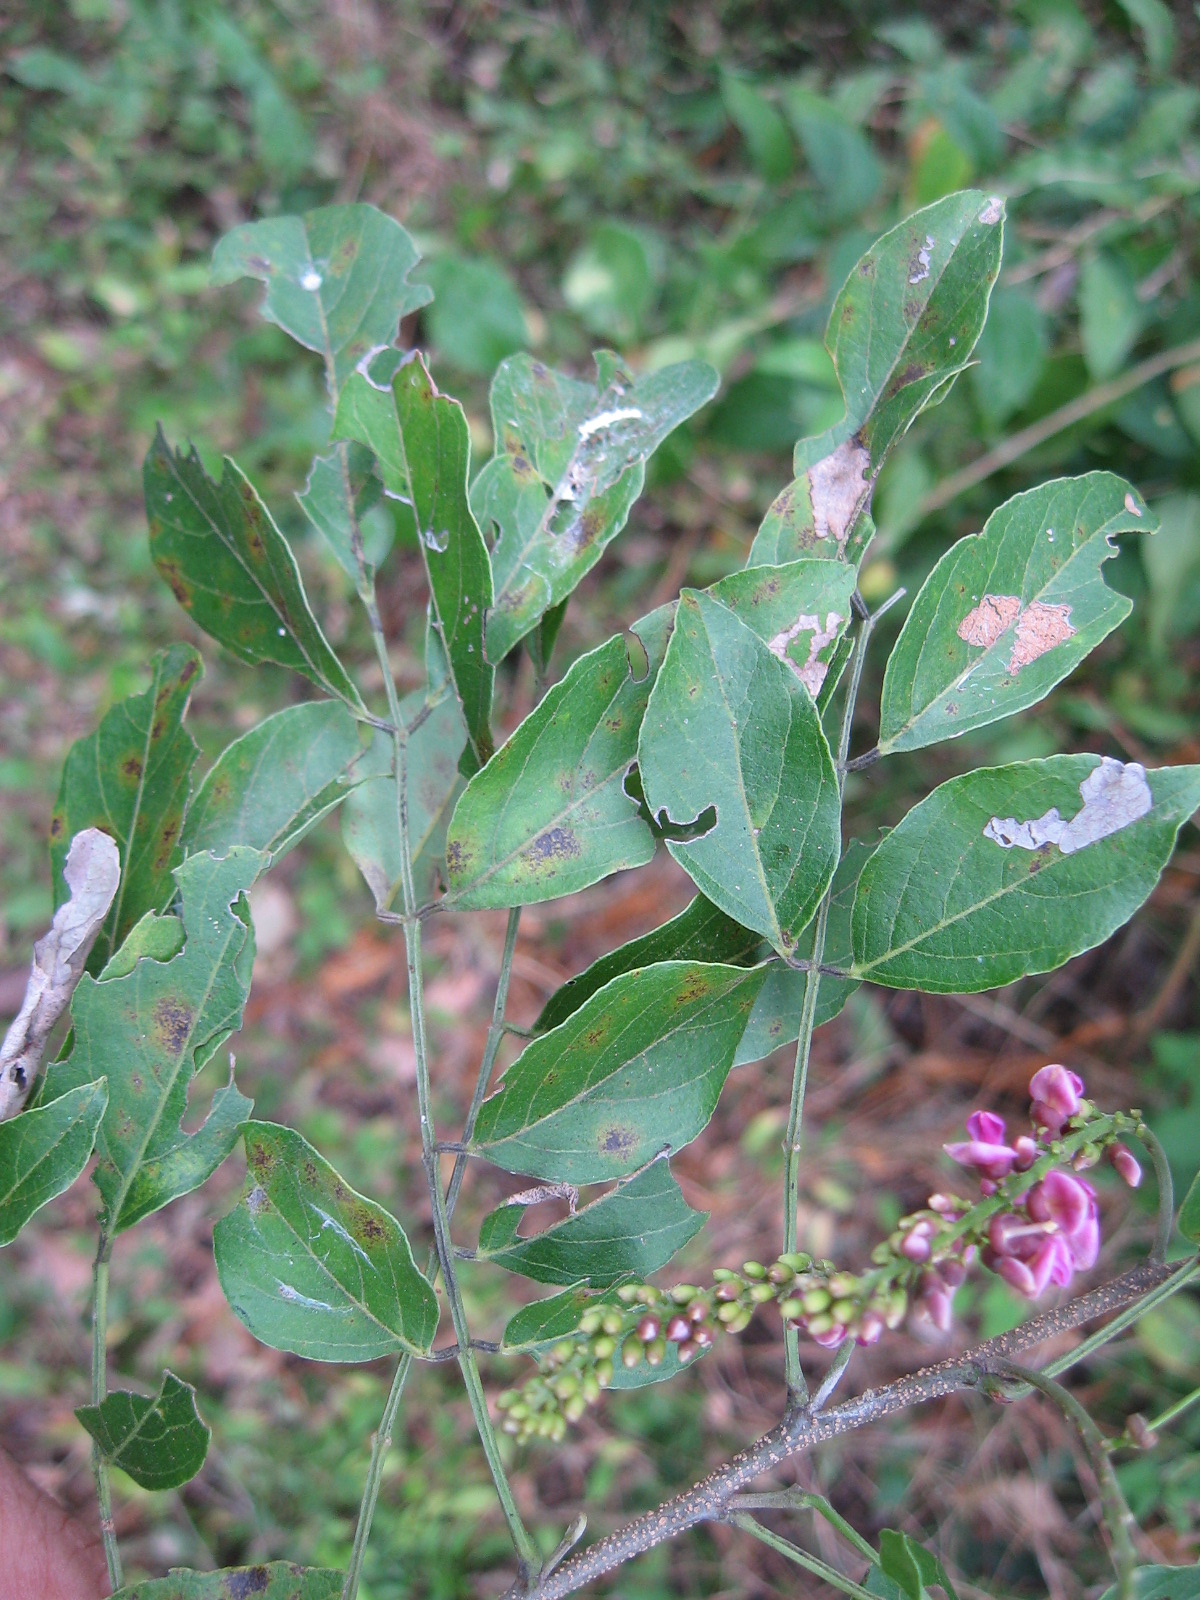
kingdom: Plantae
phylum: Tracheophyta
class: Magnoliopsida
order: Fabales
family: Fabaceae
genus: Lonchocarpus
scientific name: Lonchocarpus minimiflorus
